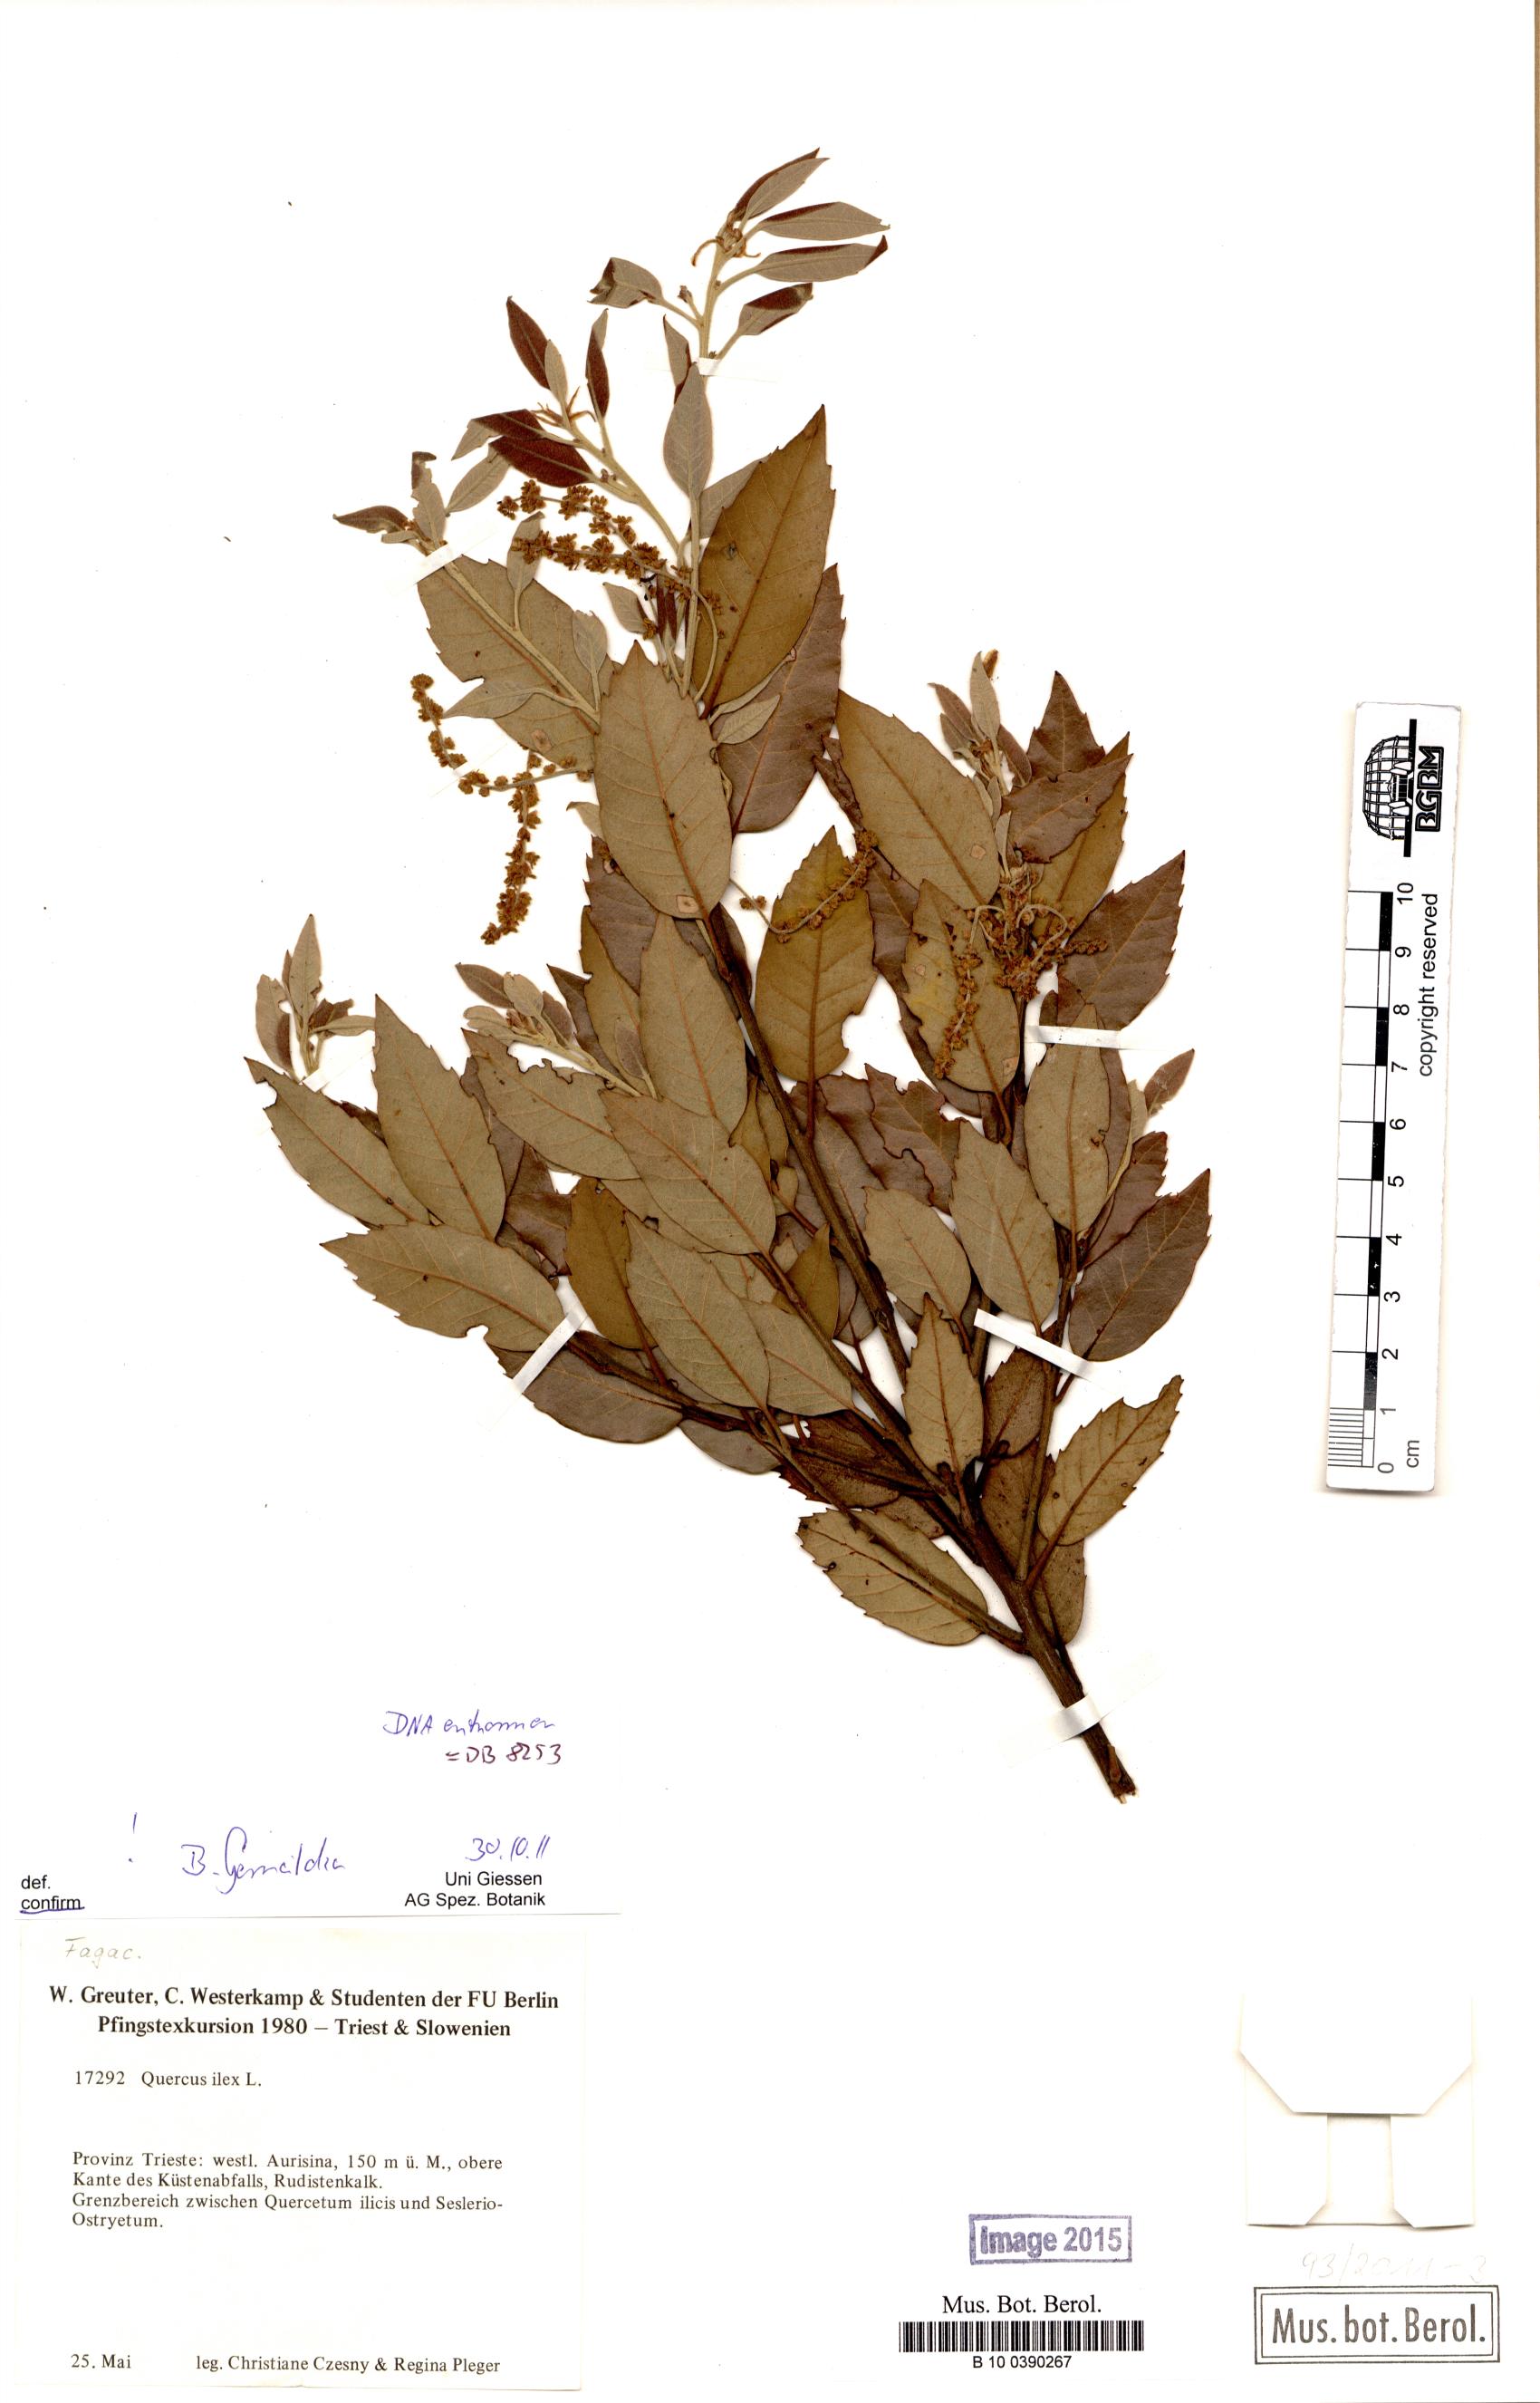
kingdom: Plantae
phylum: Tracheophyta
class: Magnoliopsida
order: Fagales
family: Fagaceae
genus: Quercus
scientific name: Quercus ilex
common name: Evergreen oak
